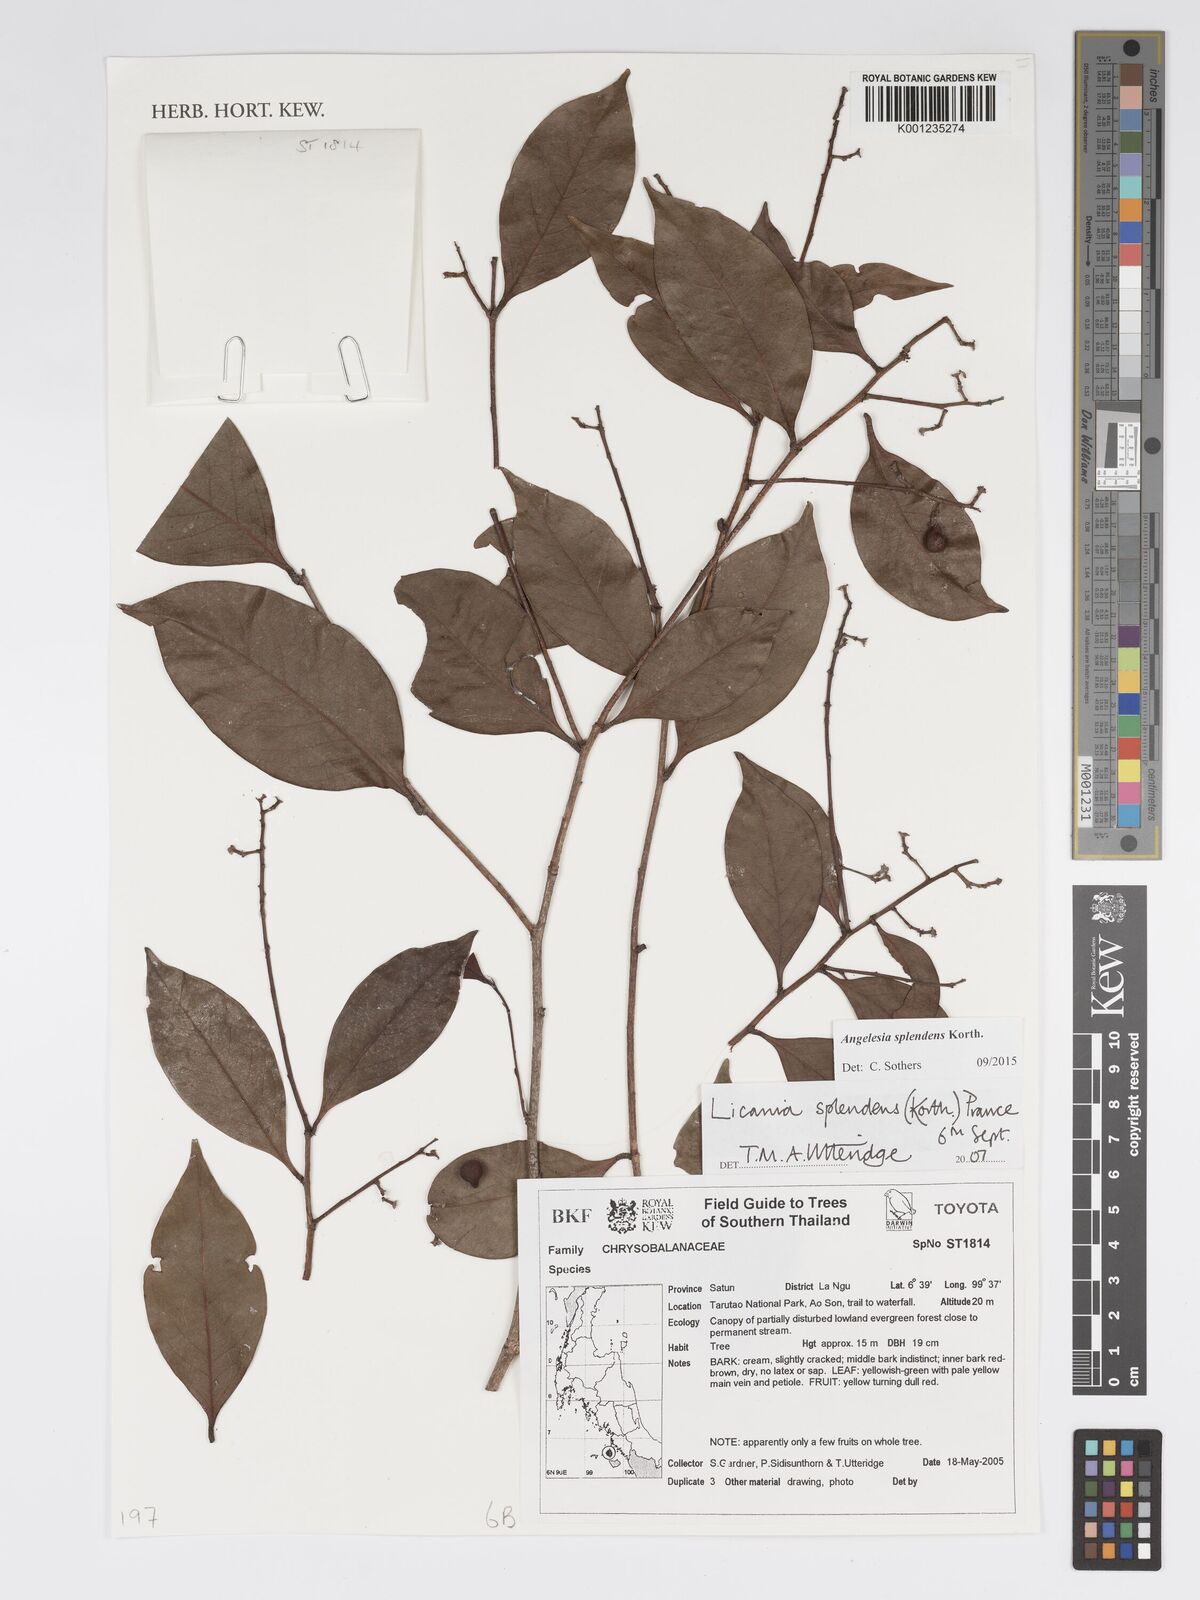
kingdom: Plantae
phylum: Tracheophyta
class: Magnoliopsida
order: Malpighiales
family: Chrysobalanaceae
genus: Angelesia
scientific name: Angelesia splendens
